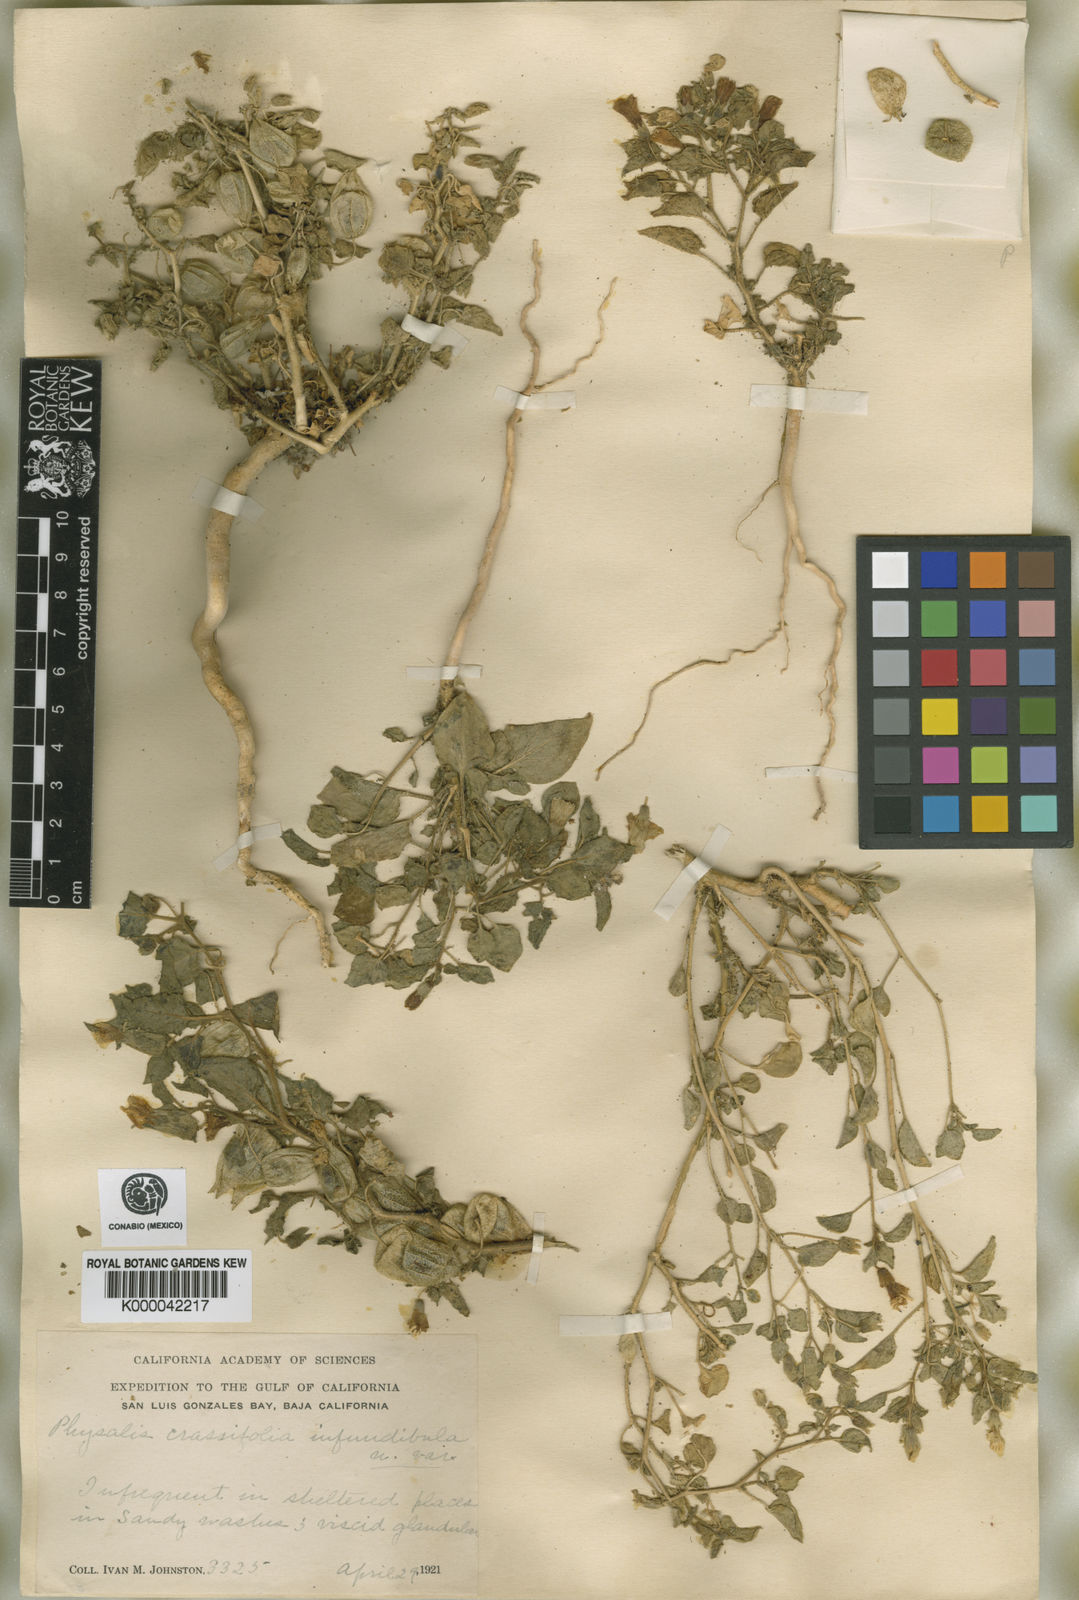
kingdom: Plantae
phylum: Tracheophyta
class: Magnoliopsida
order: Solanales
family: Solanaceae
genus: Physalis
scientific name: Physalis crassifolia
